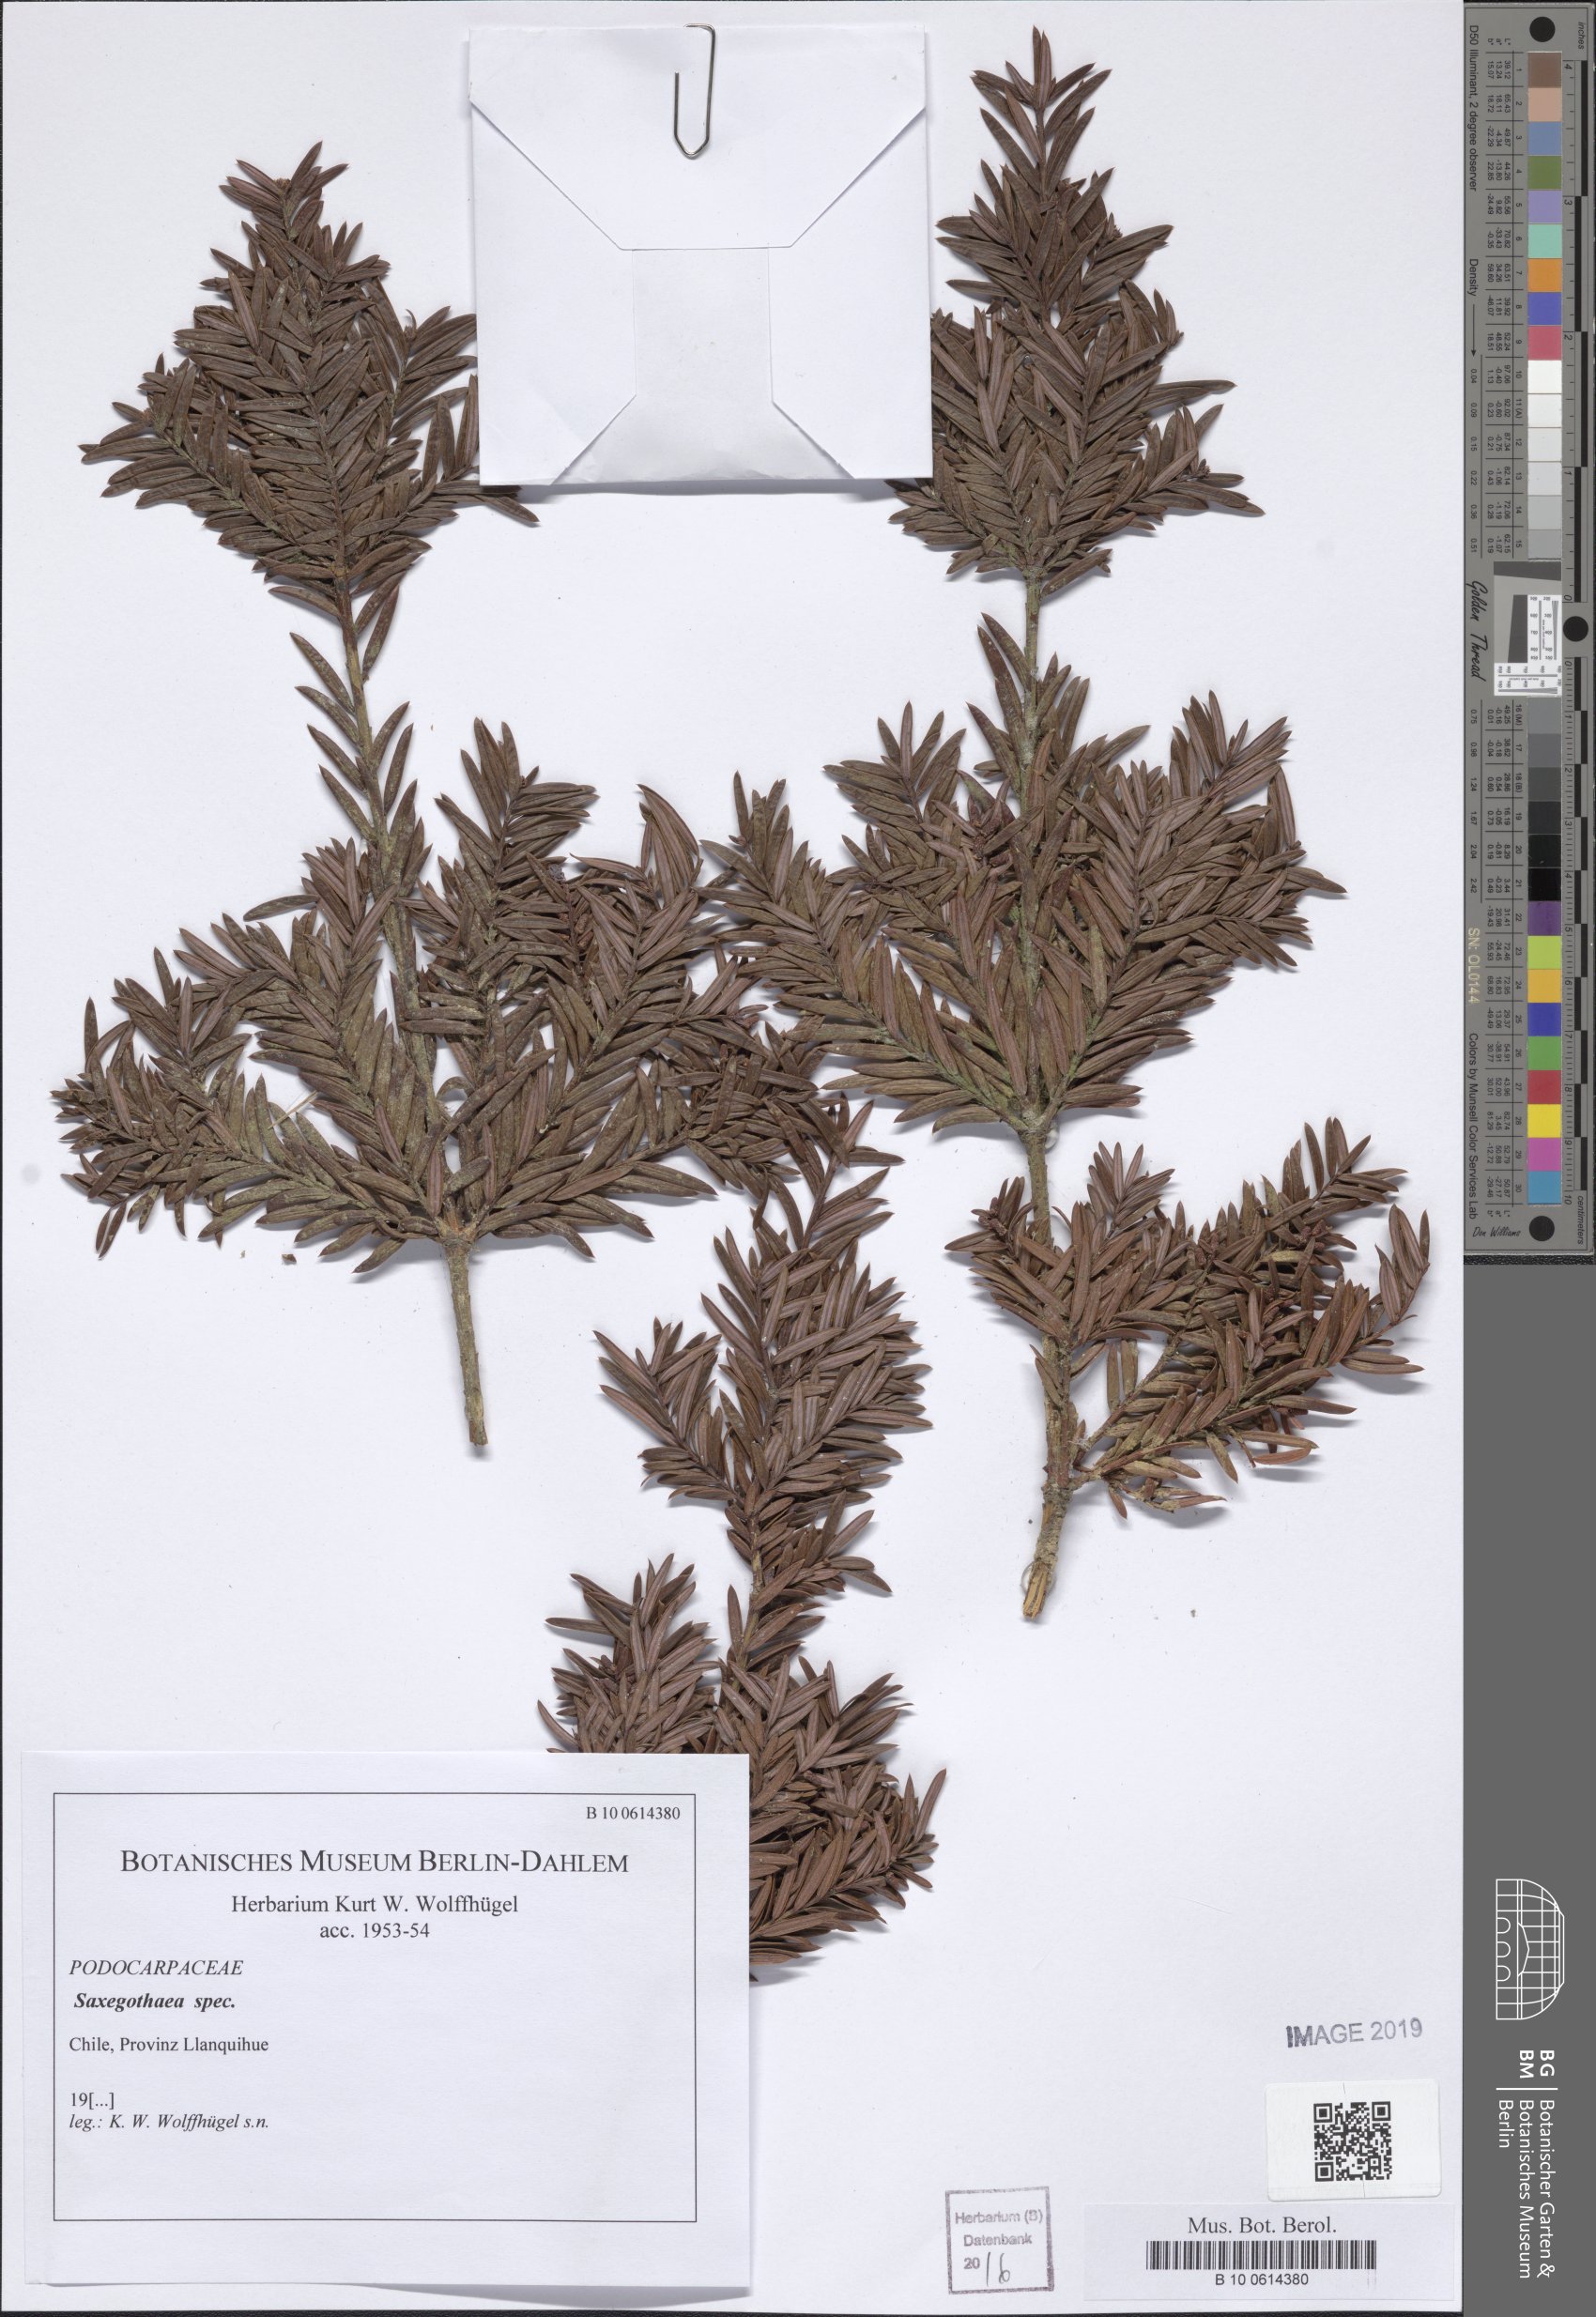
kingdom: Plantae
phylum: Tracheophyta
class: Pinopsida
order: Pinales
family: Podocarpaceae
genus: Saxegothaea
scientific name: Saxegothaea
